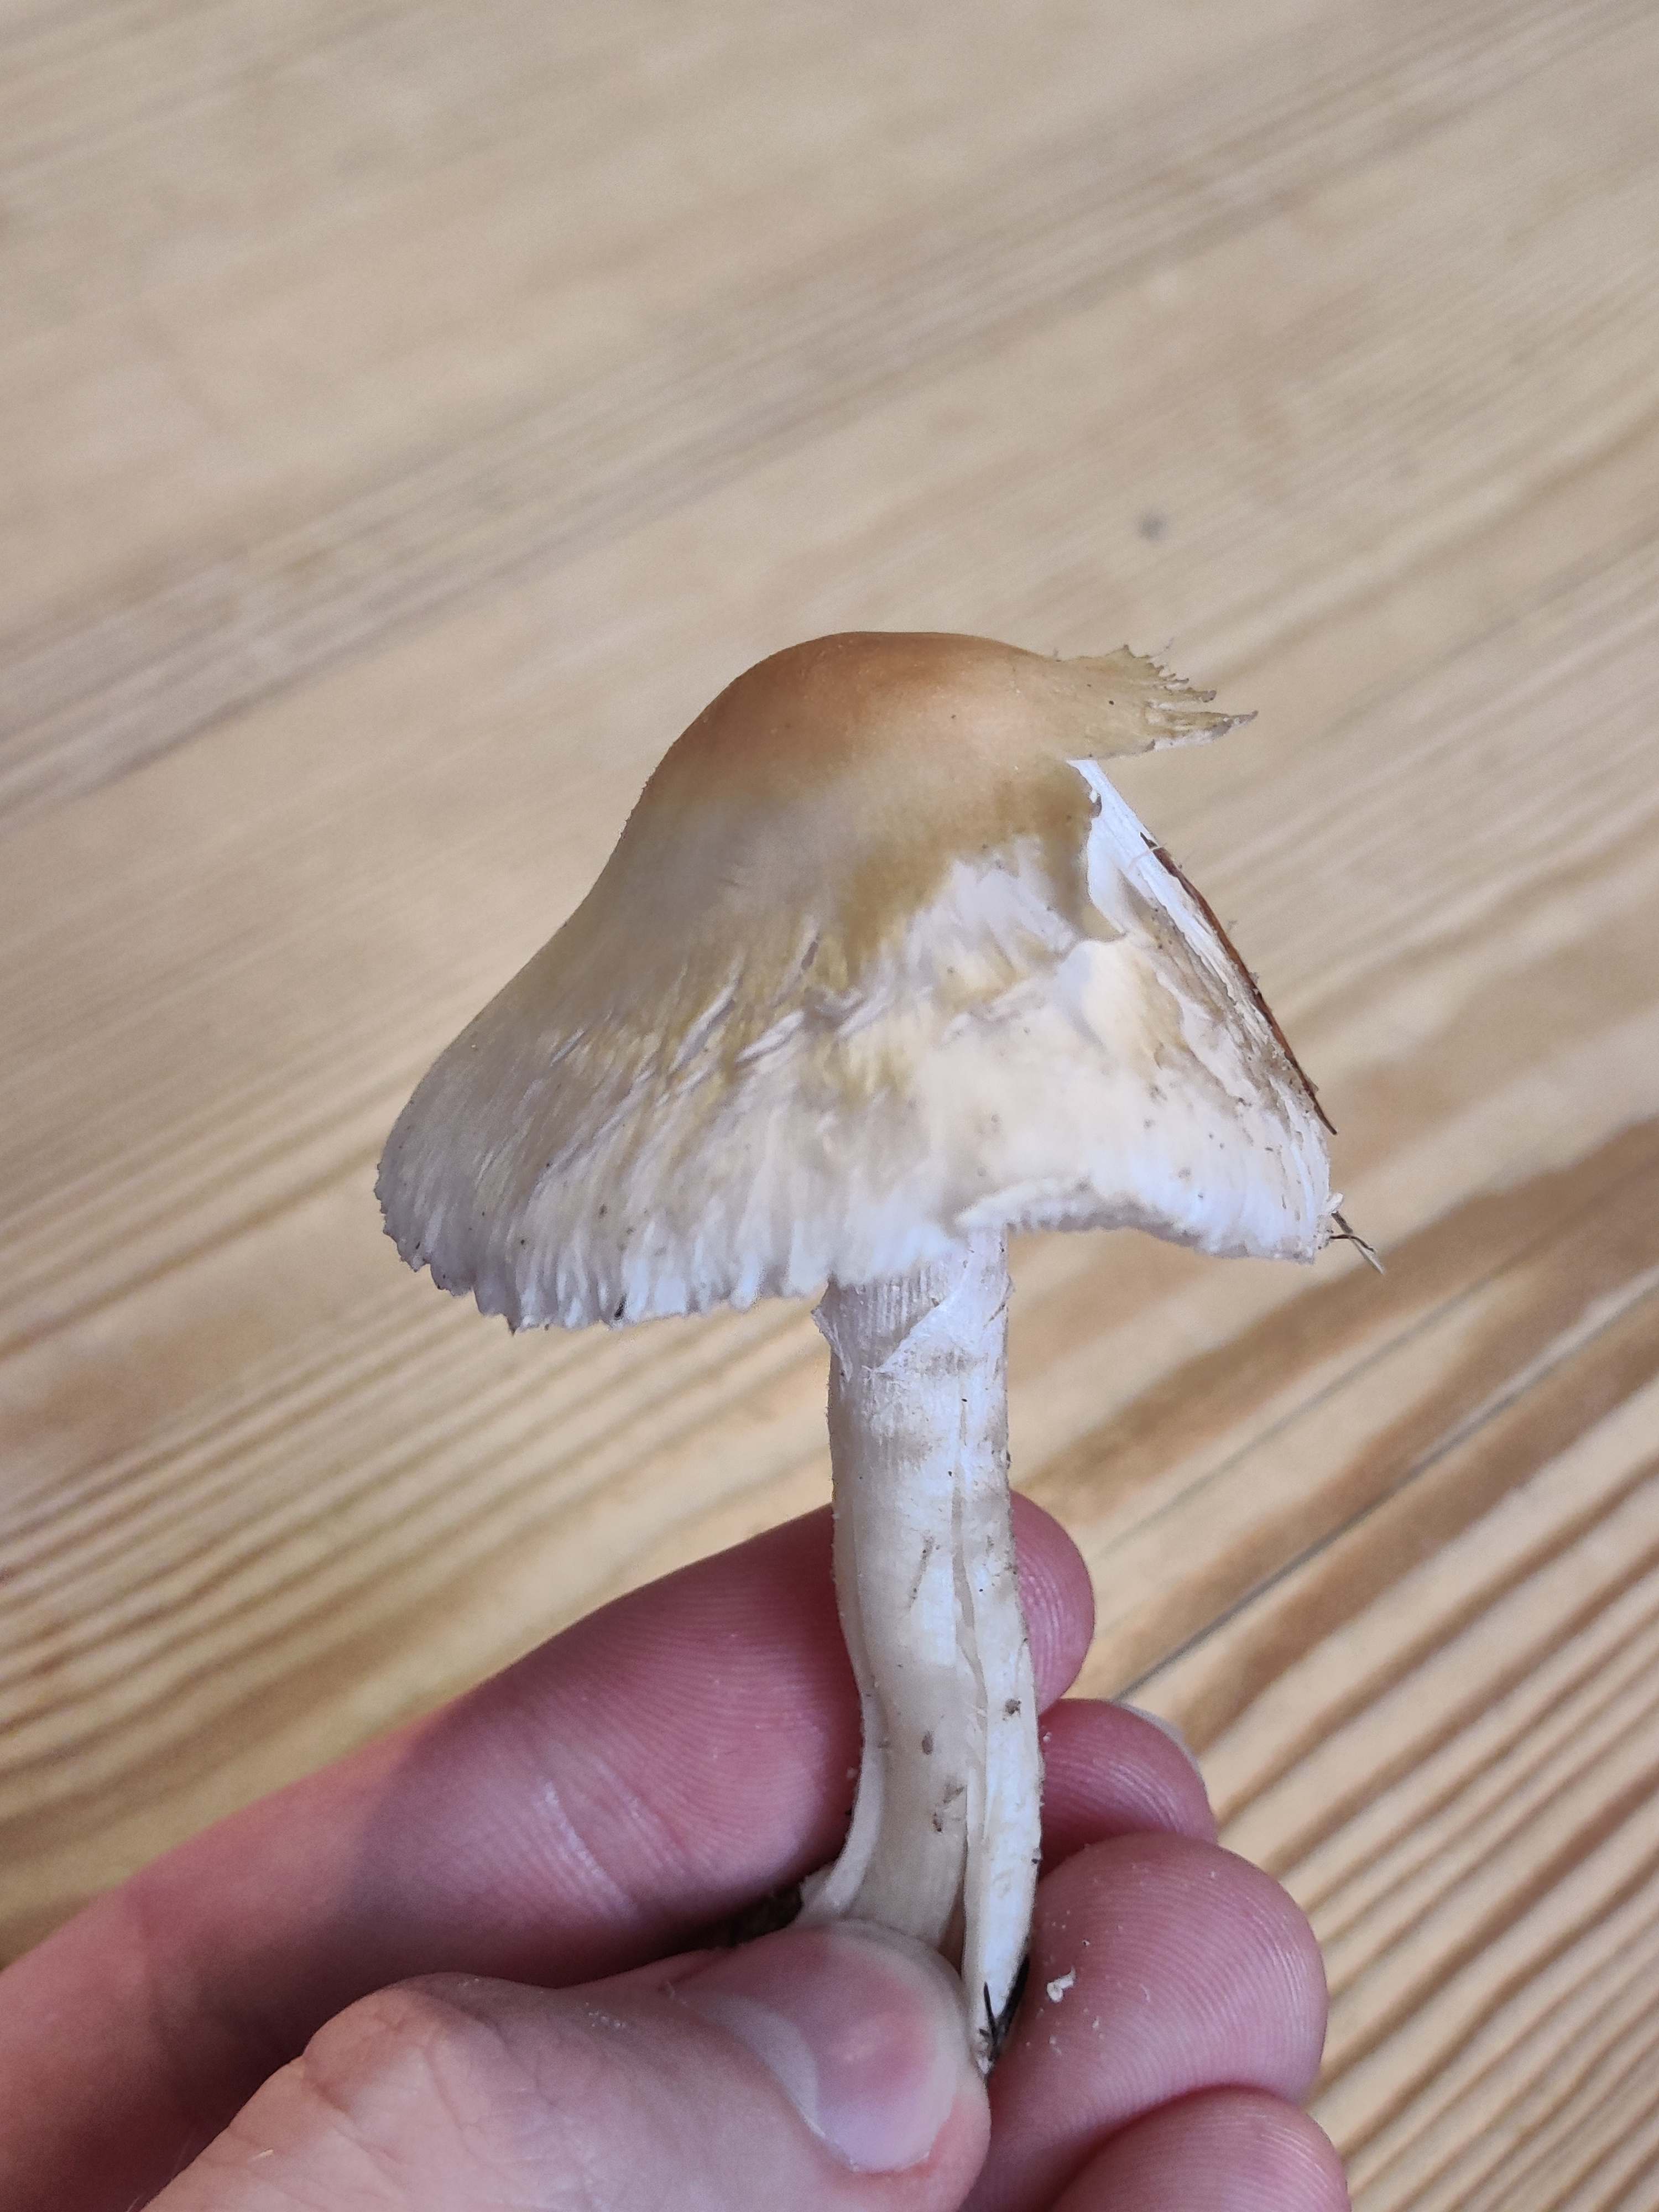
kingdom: Fungi
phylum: Basidiomycota
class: Agaricomycetes
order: Agaricales
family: Agaricaceae
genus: Lepiota
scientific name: Lepiota
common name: parasolhat
